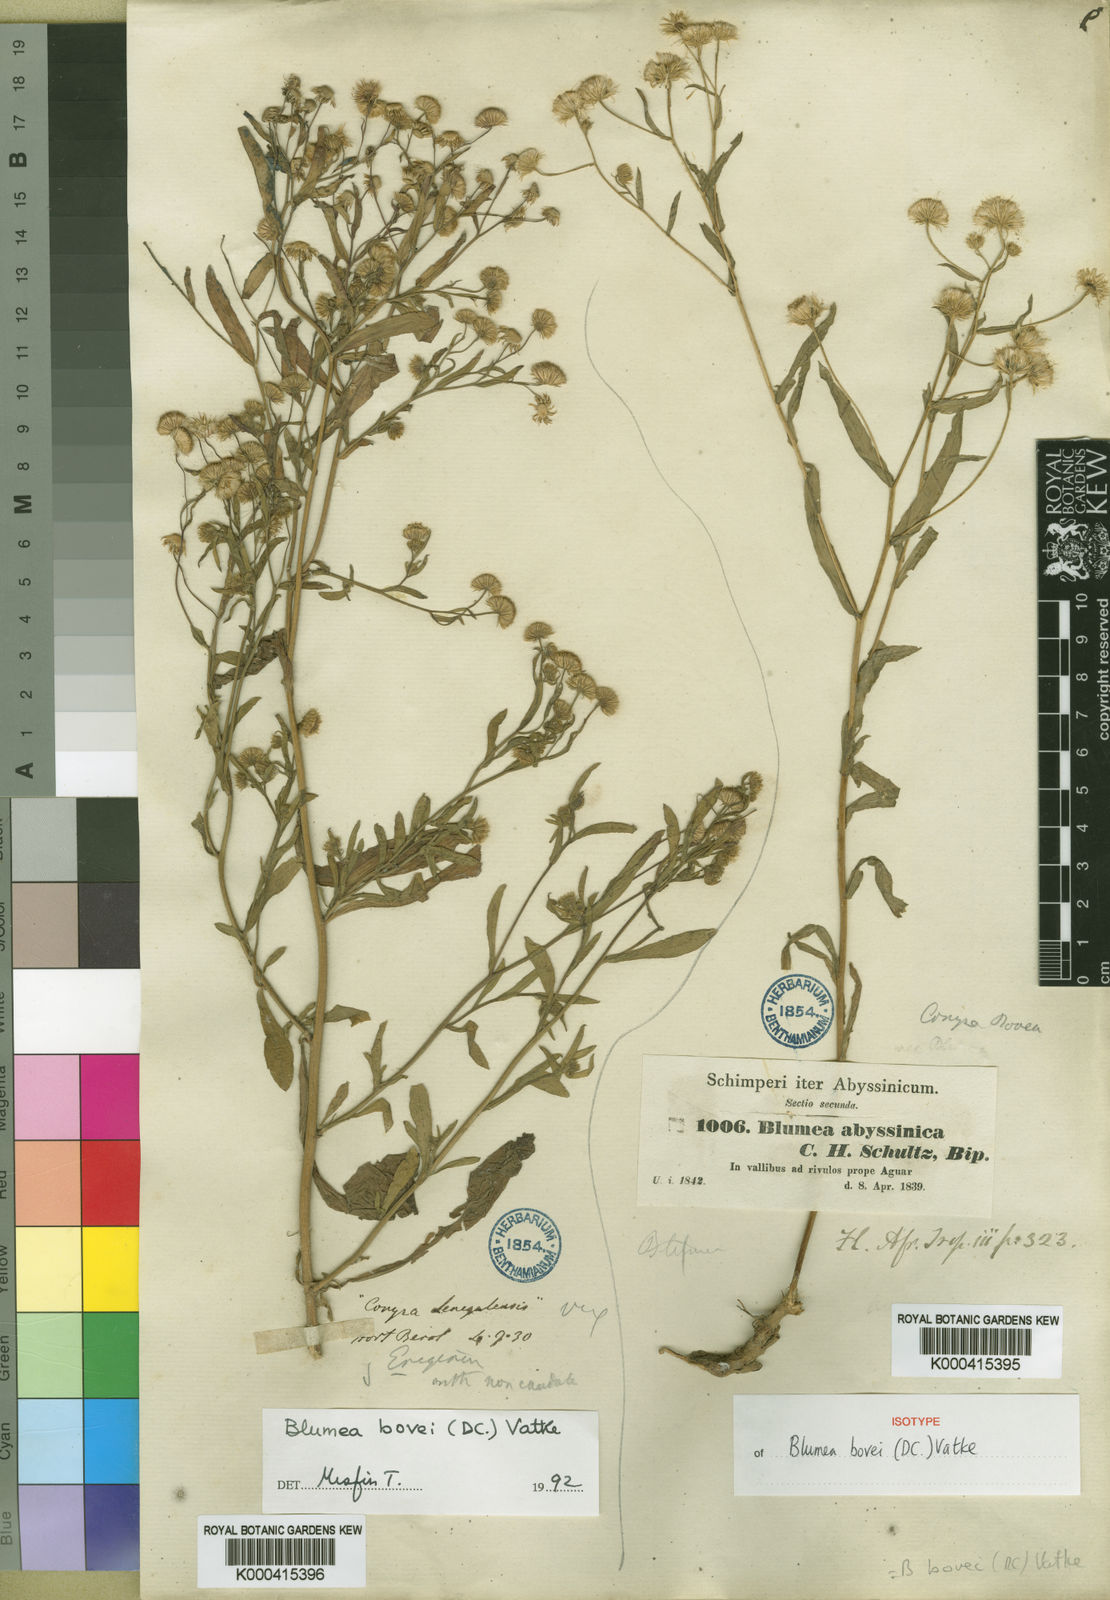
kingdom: Plantae
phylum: Tracheophyta
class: Magnoliopsida
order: Asterales
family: Asteraceae
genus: Doellia
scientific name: Doellia bovei
